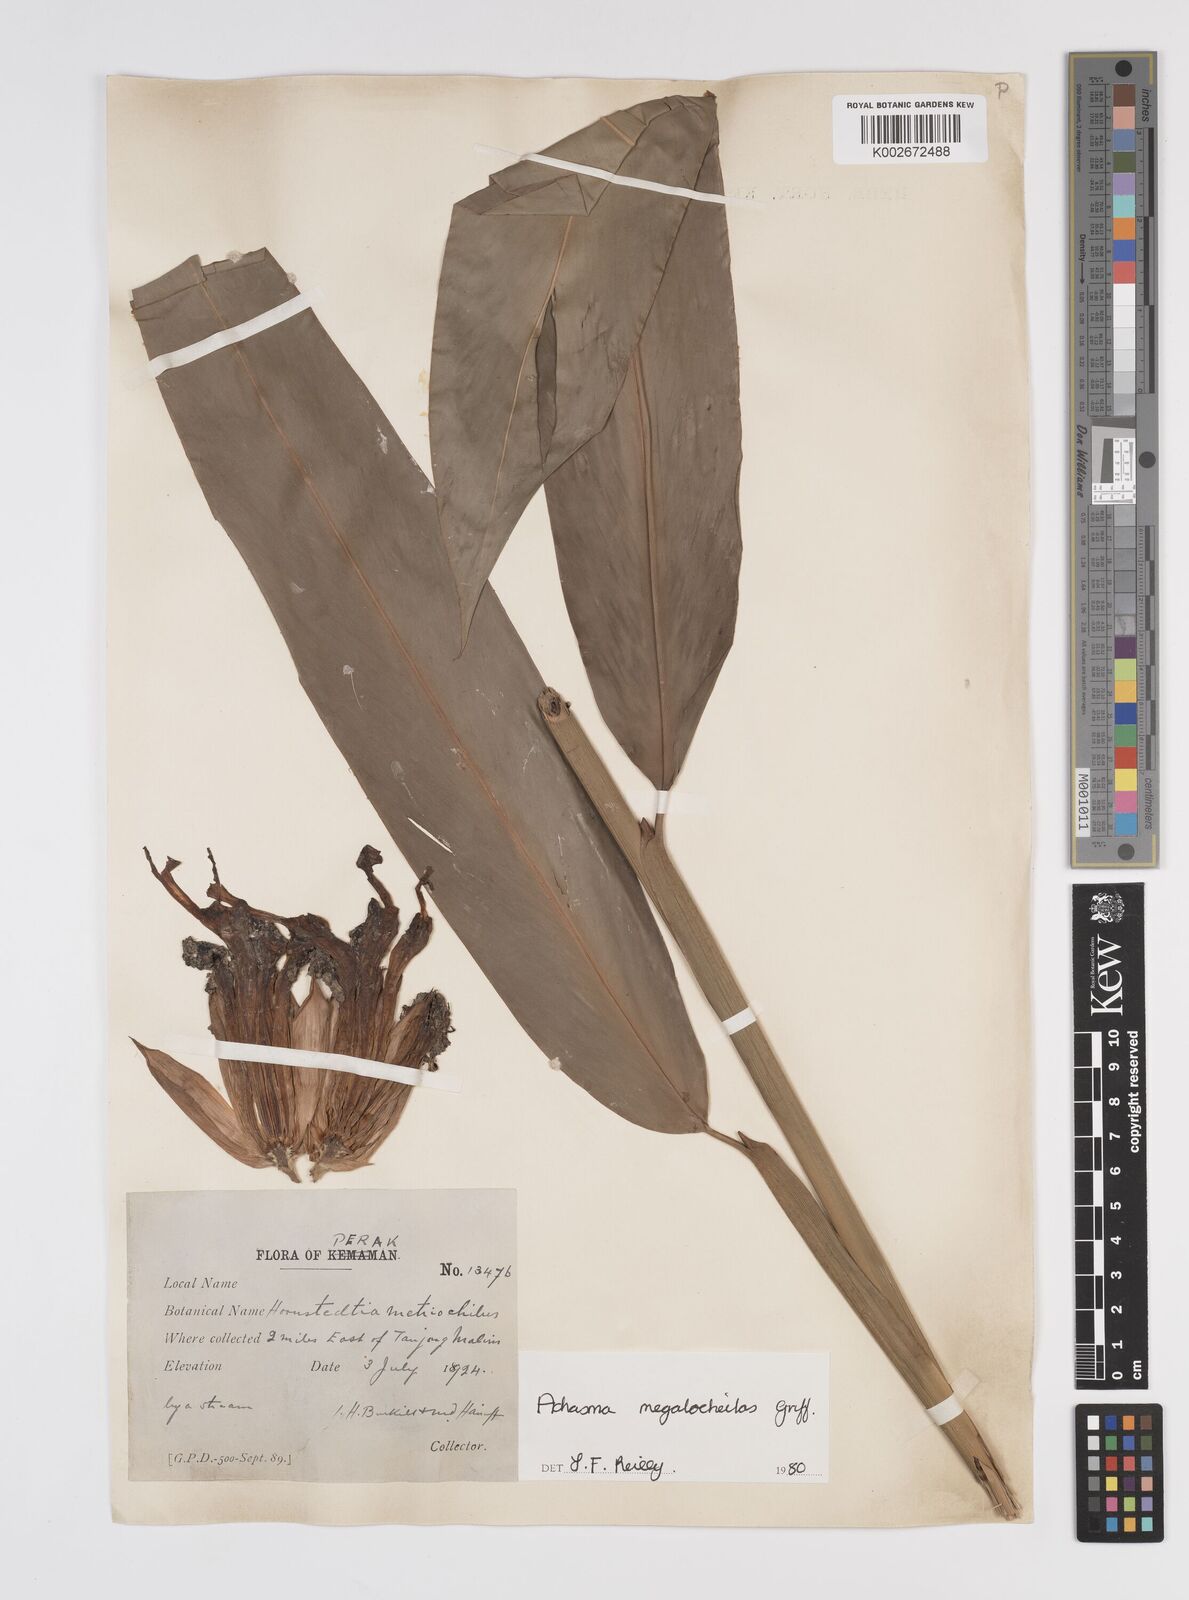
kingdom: Plantae
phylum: Tracheophyta
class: Liliopsida
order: Zingiberales
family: Zingiberaceae
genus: Etlingera
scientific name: Etlingera metriocheilos
